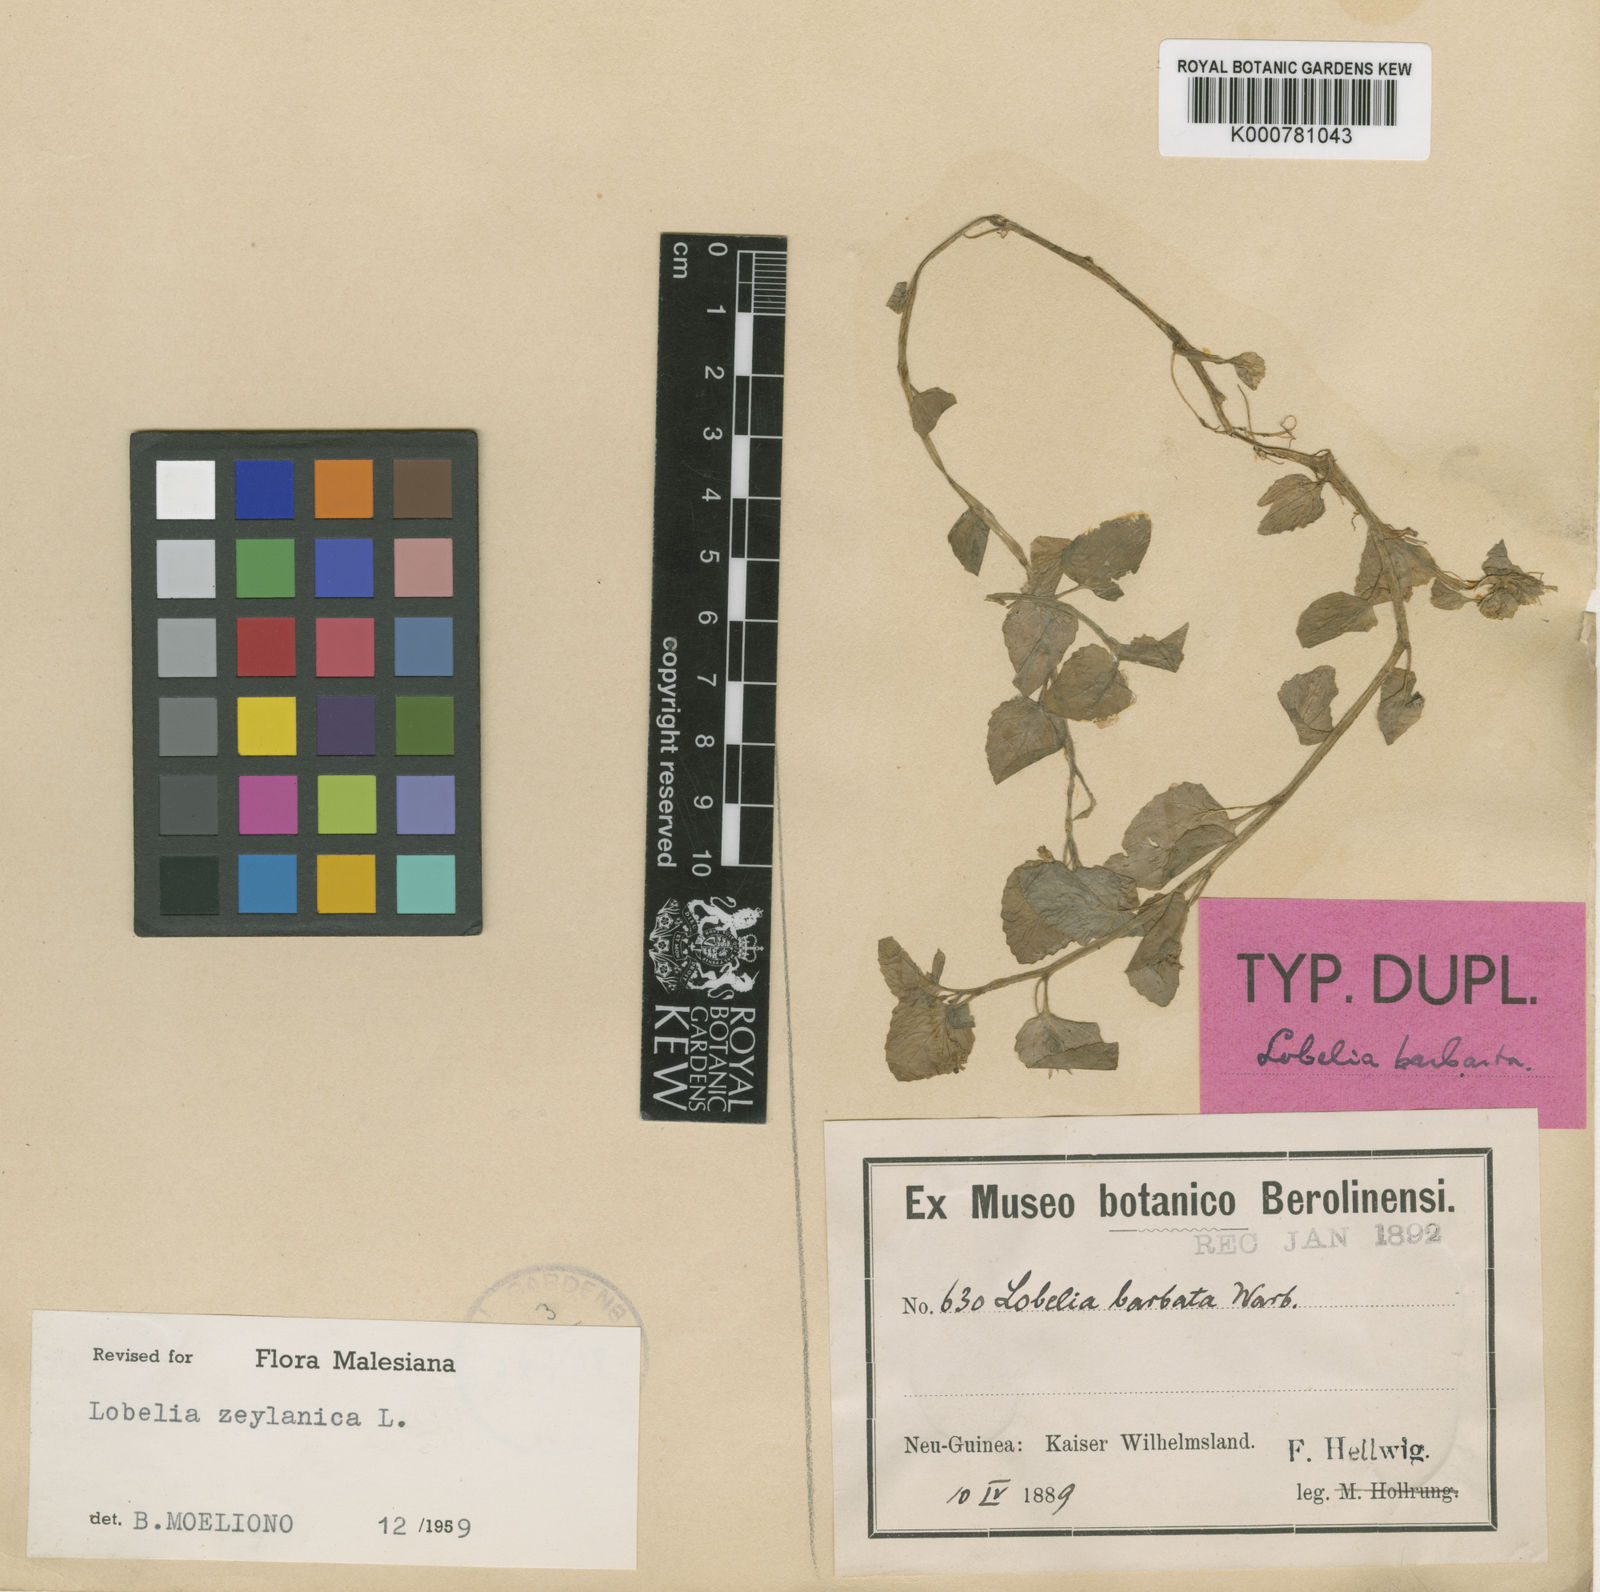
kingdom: Plantae
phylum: Tracheophyta
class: Magnoliopsida
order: Asterales
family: Campanulaceae
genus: Lobelia
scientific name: Lobelia zeylanica
